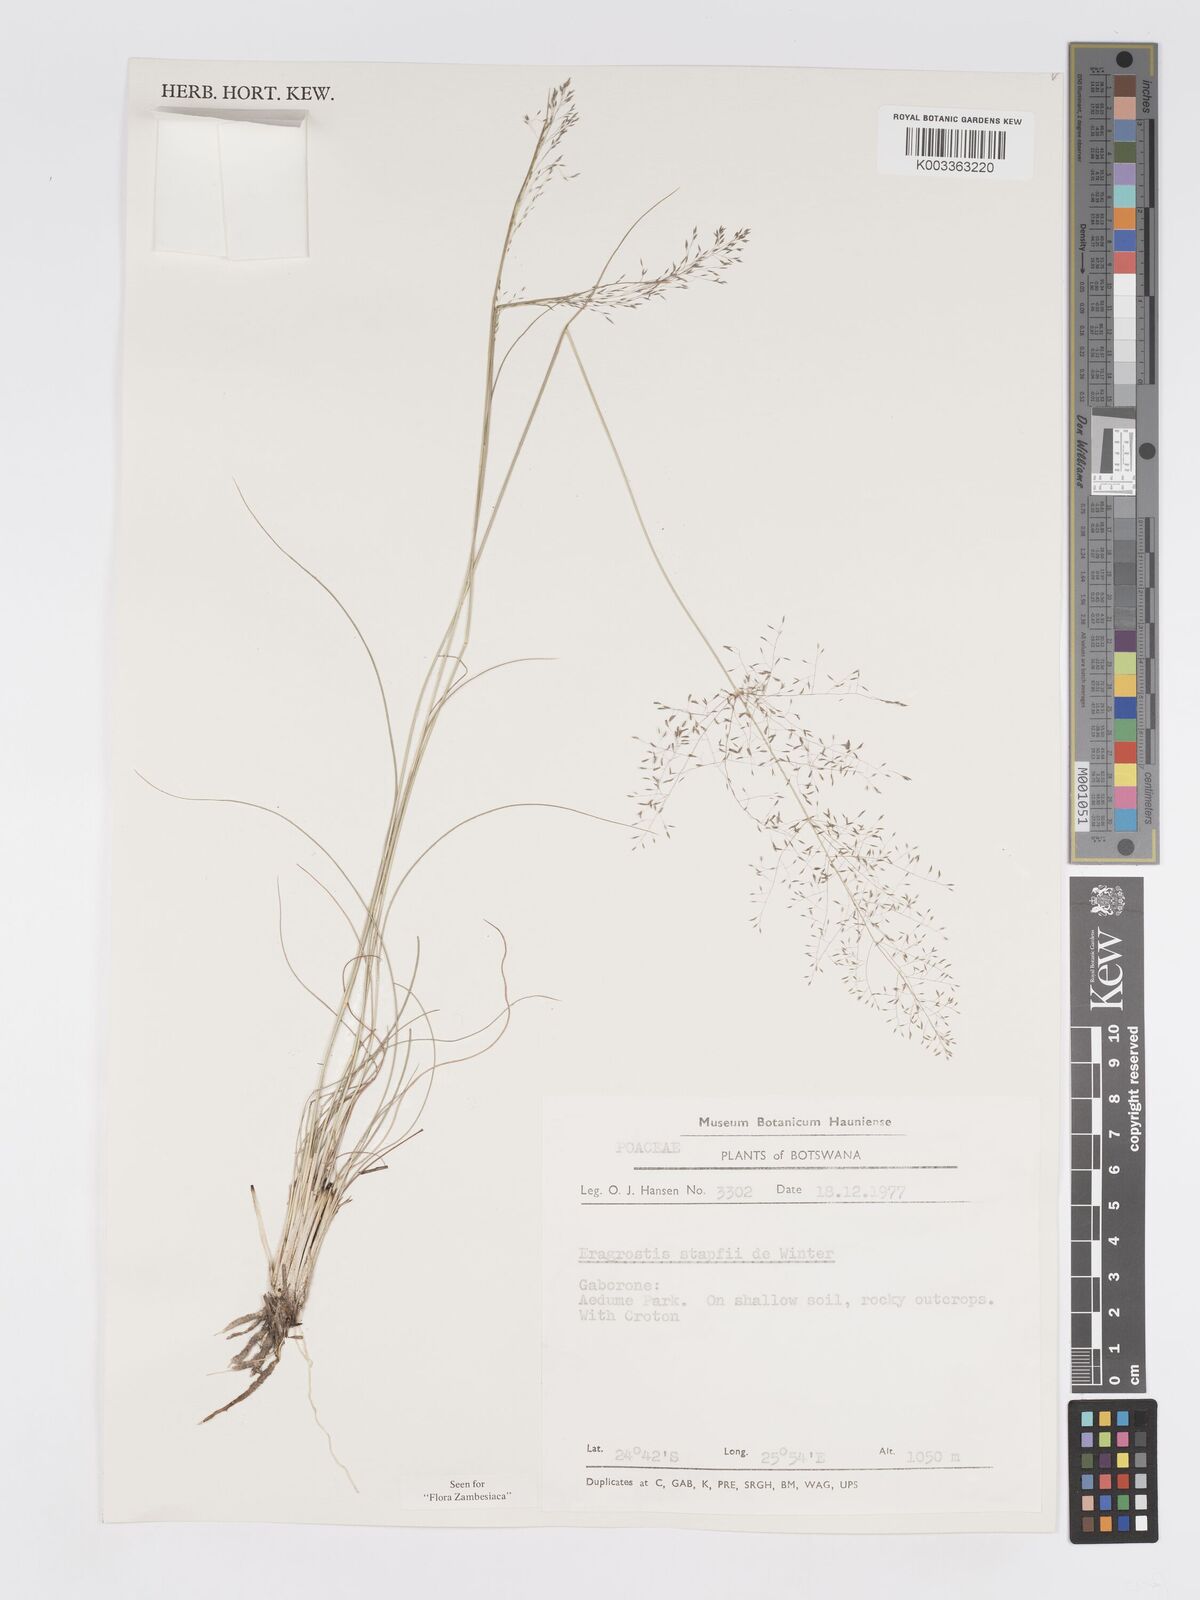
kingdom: Plantae
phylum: Tracheophyta
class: Liliopsida
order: Poales
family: Poaceae
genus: Eragrostis
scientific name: Eragrostis stapfii
